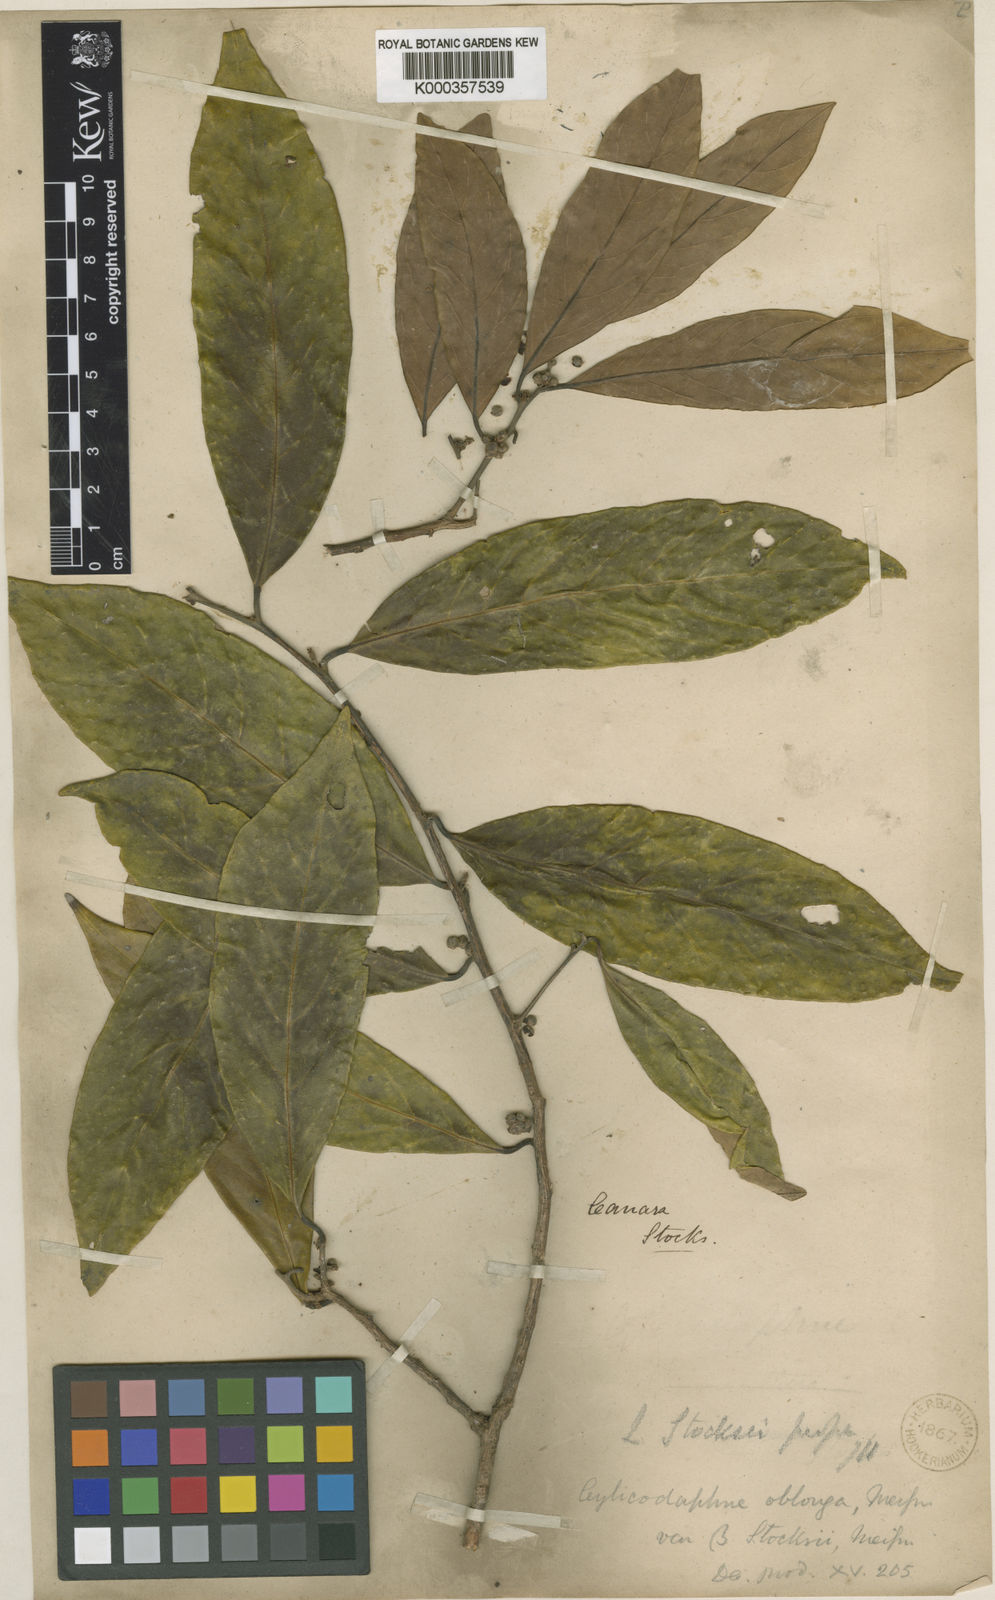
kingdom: Plantae
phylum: Tracheophyta
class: Magnoliopsida
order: Laurales
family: Lauraceae
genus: Litsea
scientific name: Litsea stocksii
